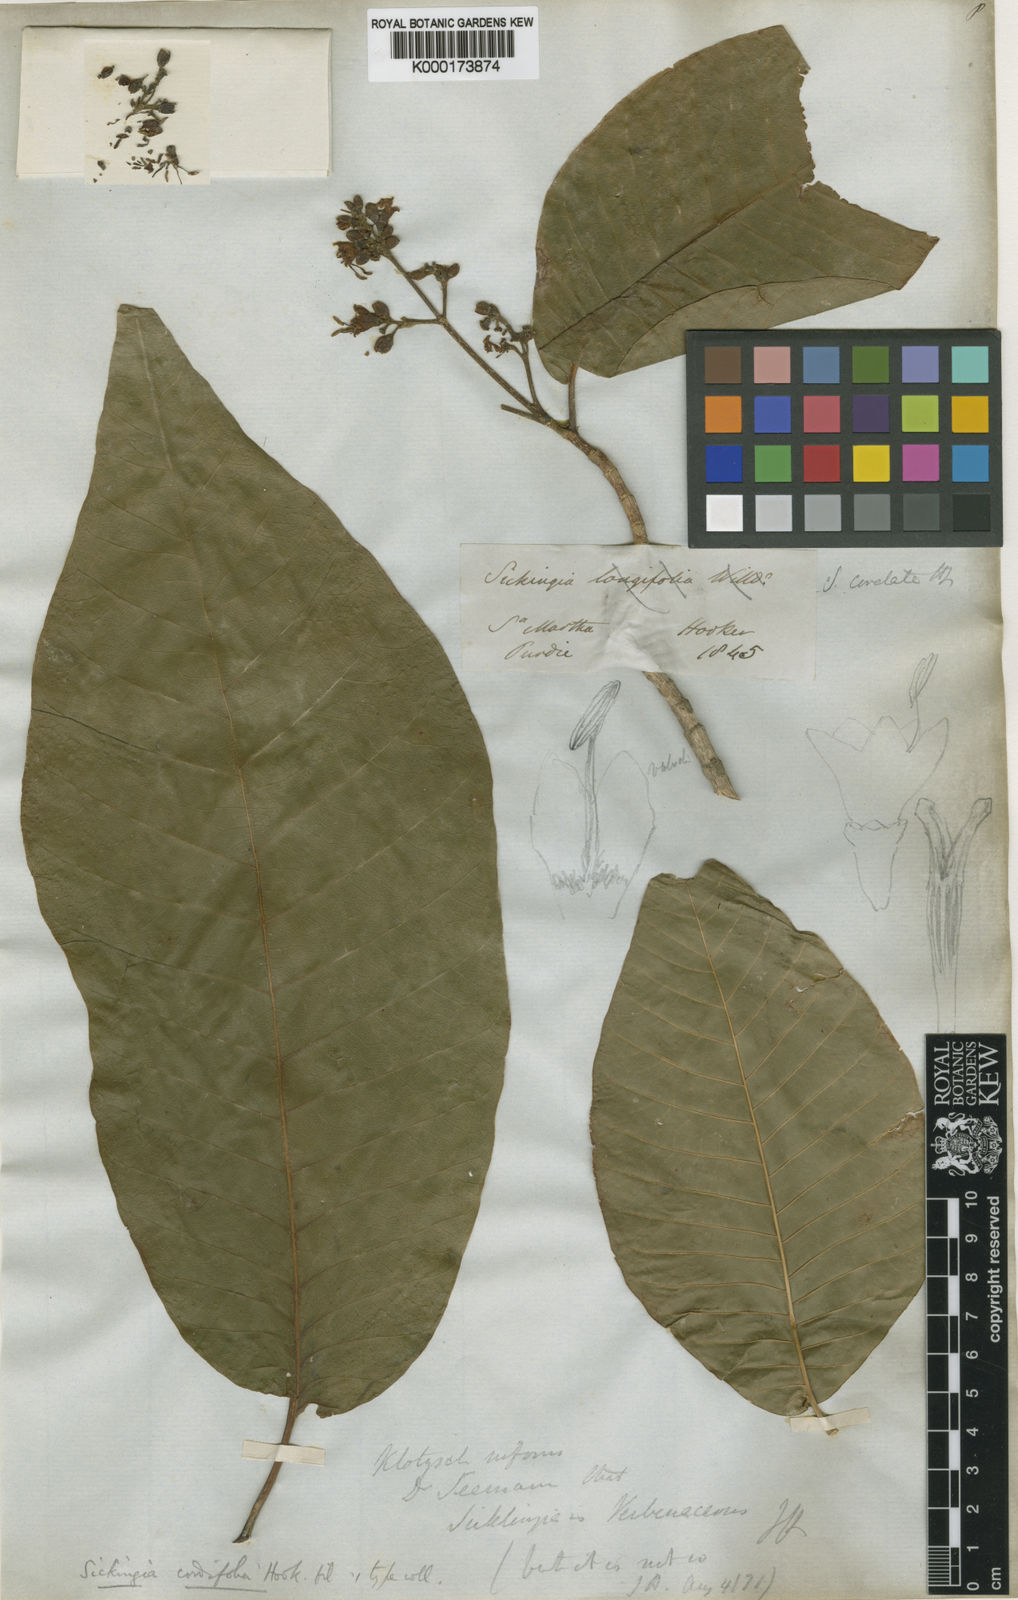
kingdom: Plantae
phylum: Tracheophyta
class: Magnoliopsida
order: Gentianales
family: Rubiaceae
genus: Simira
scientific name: Simira cordifolia
